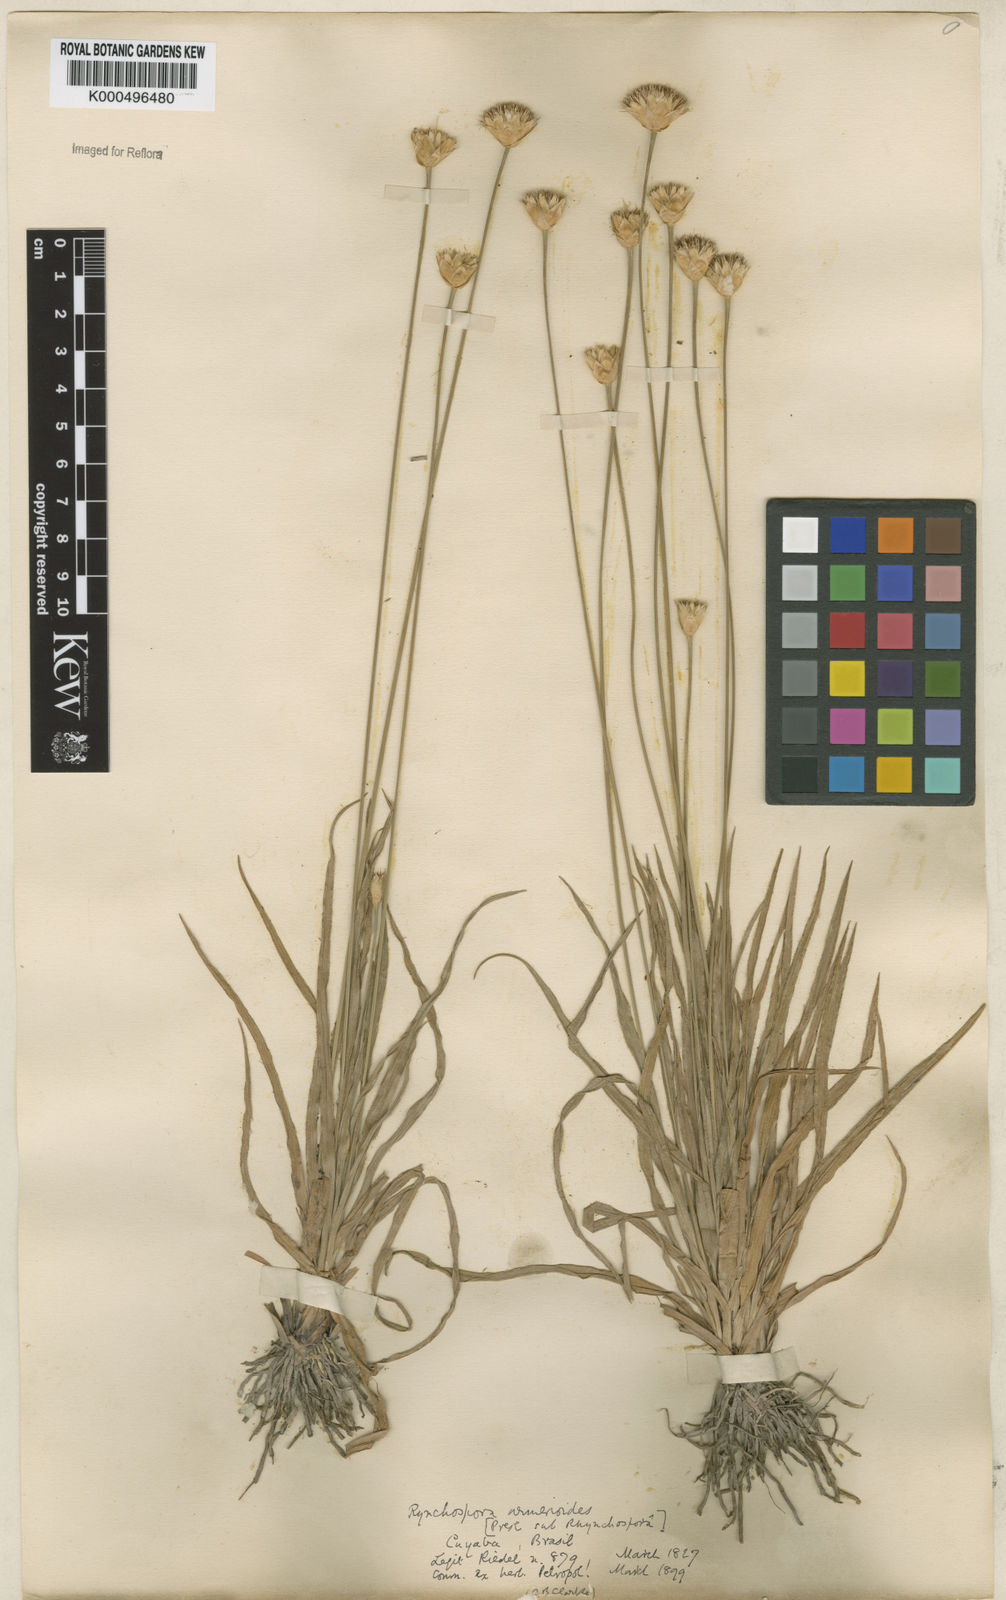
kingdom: Plantae
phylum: Tracheophyta
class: Liliopsida
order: Poales
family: Cyperaceae
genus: Rhynchospora
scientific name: Rhynchospora armerioides
